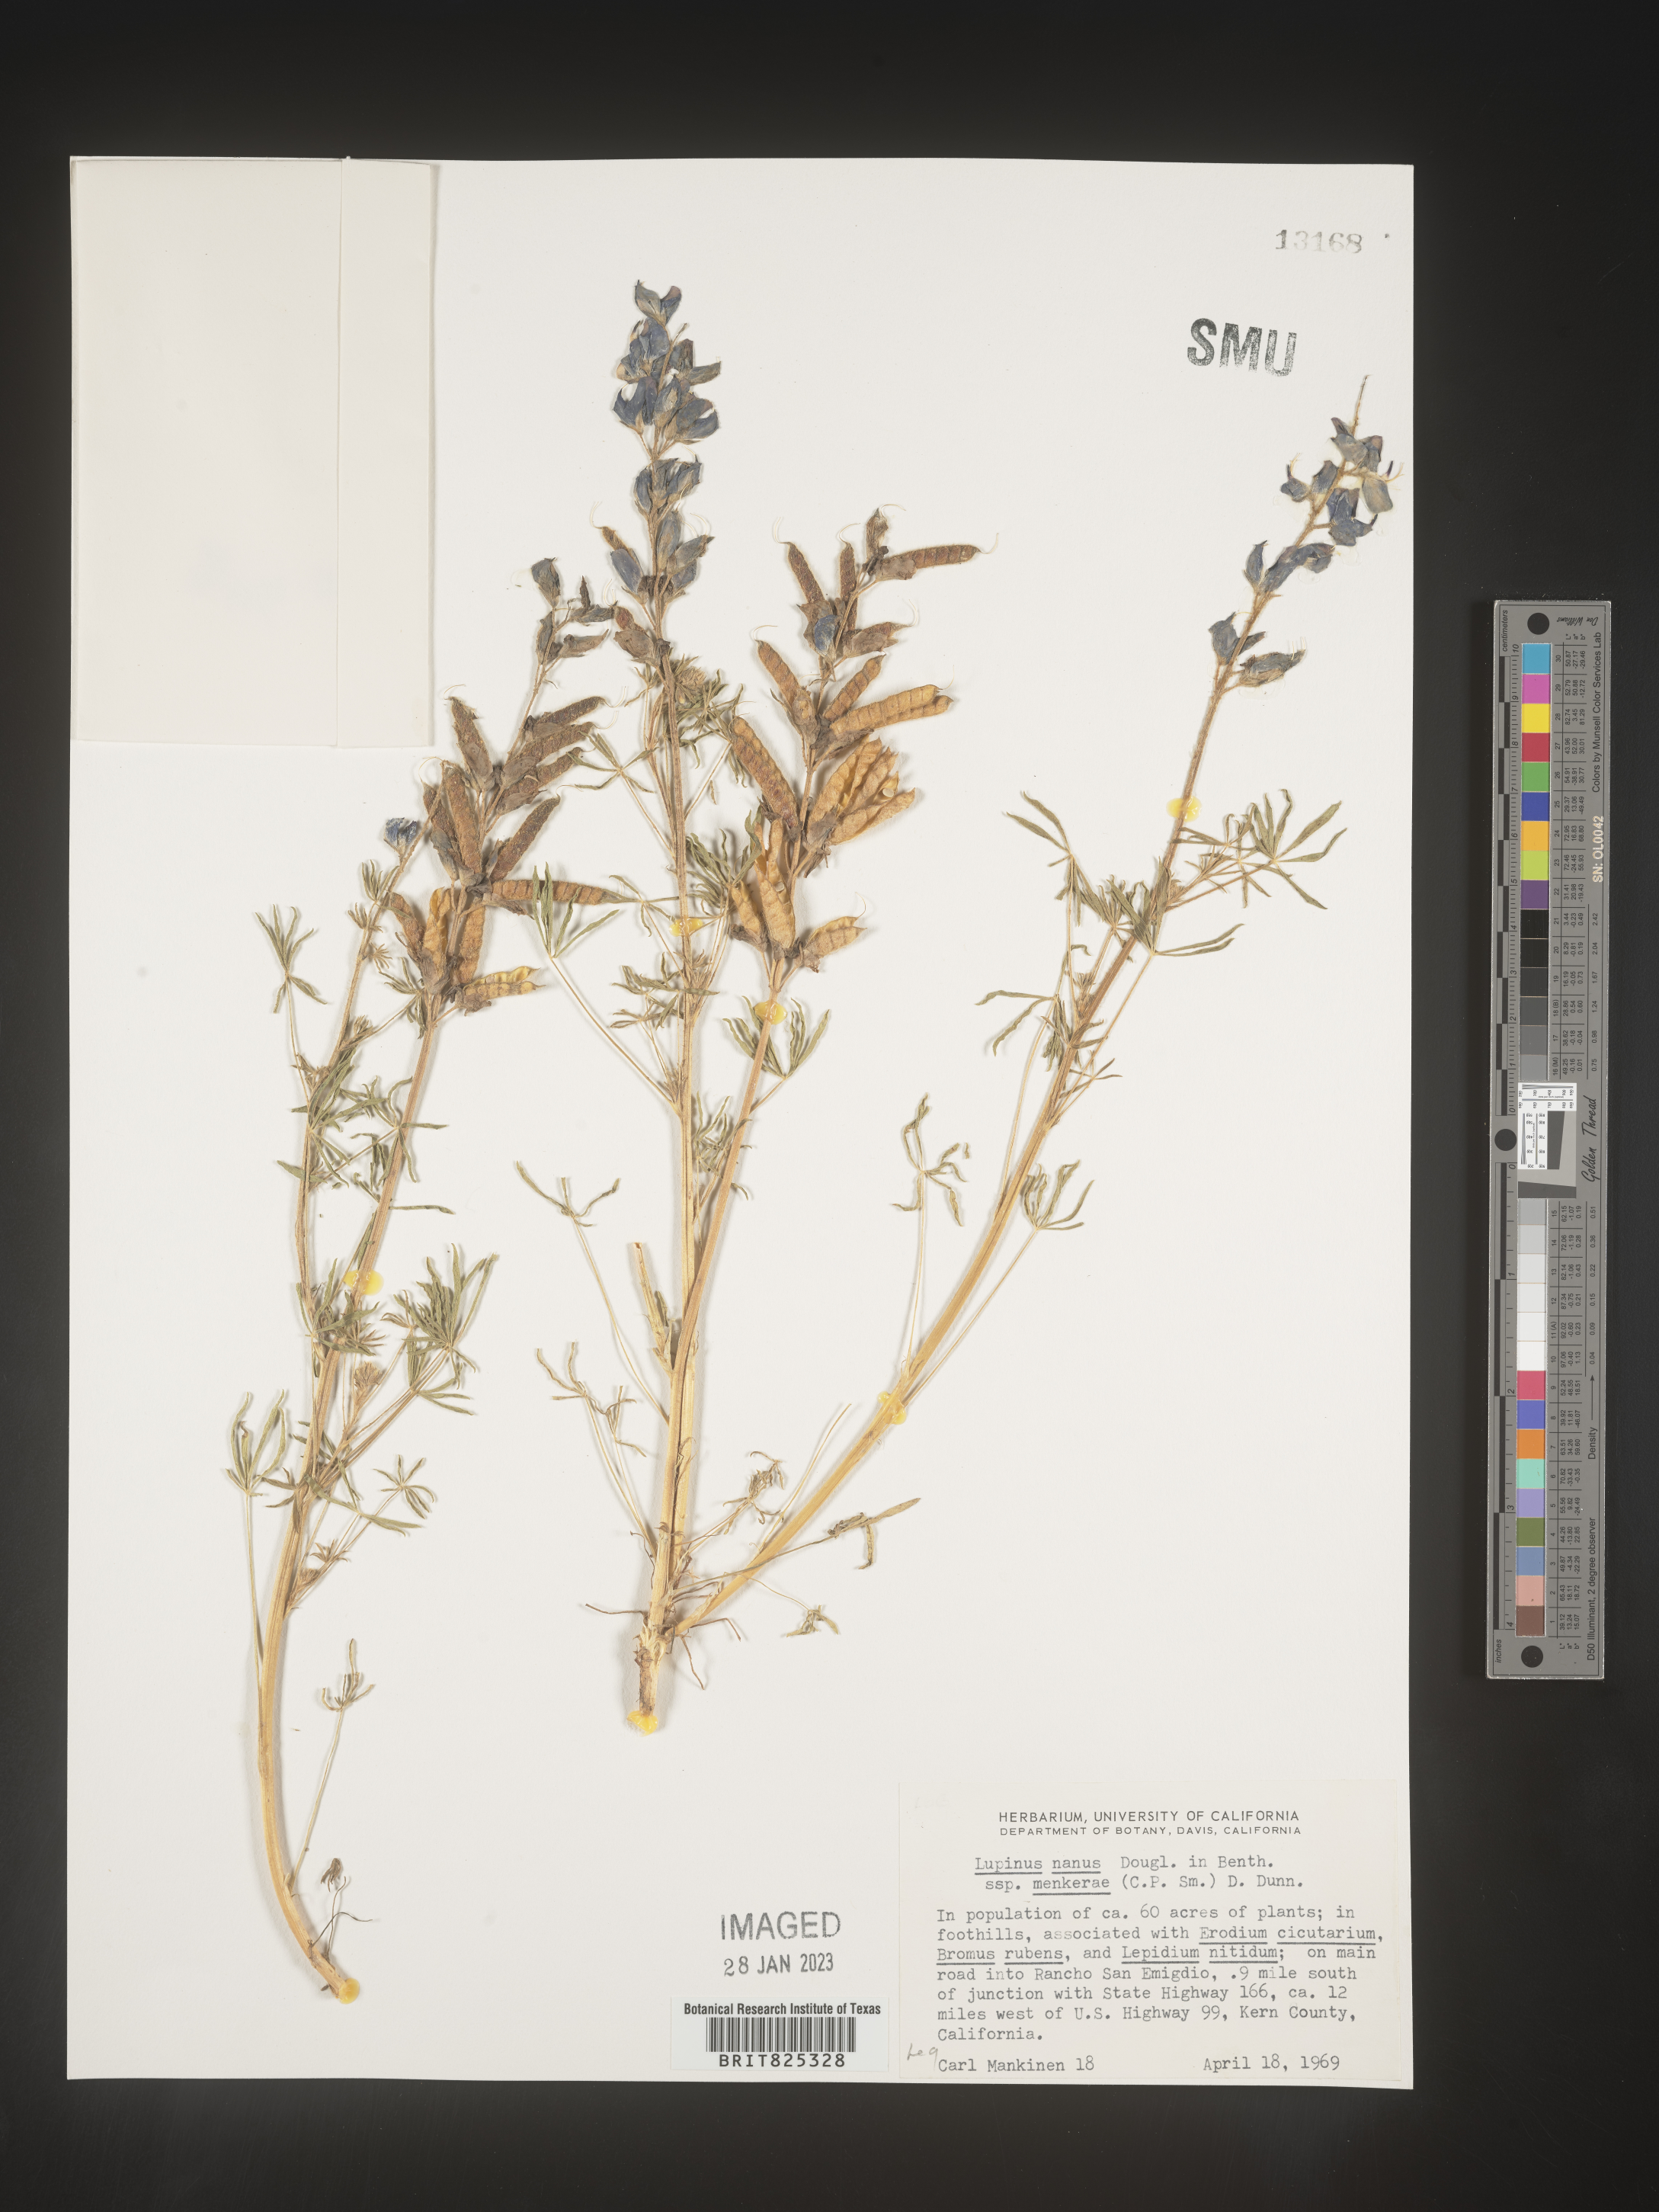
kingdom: Plantae
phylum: Tracheophyta
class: Magnoliopsida
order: Fabales
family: Fabaceae
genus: Lupinus
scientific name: Lupinus nanus
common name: Orean blue lupin
